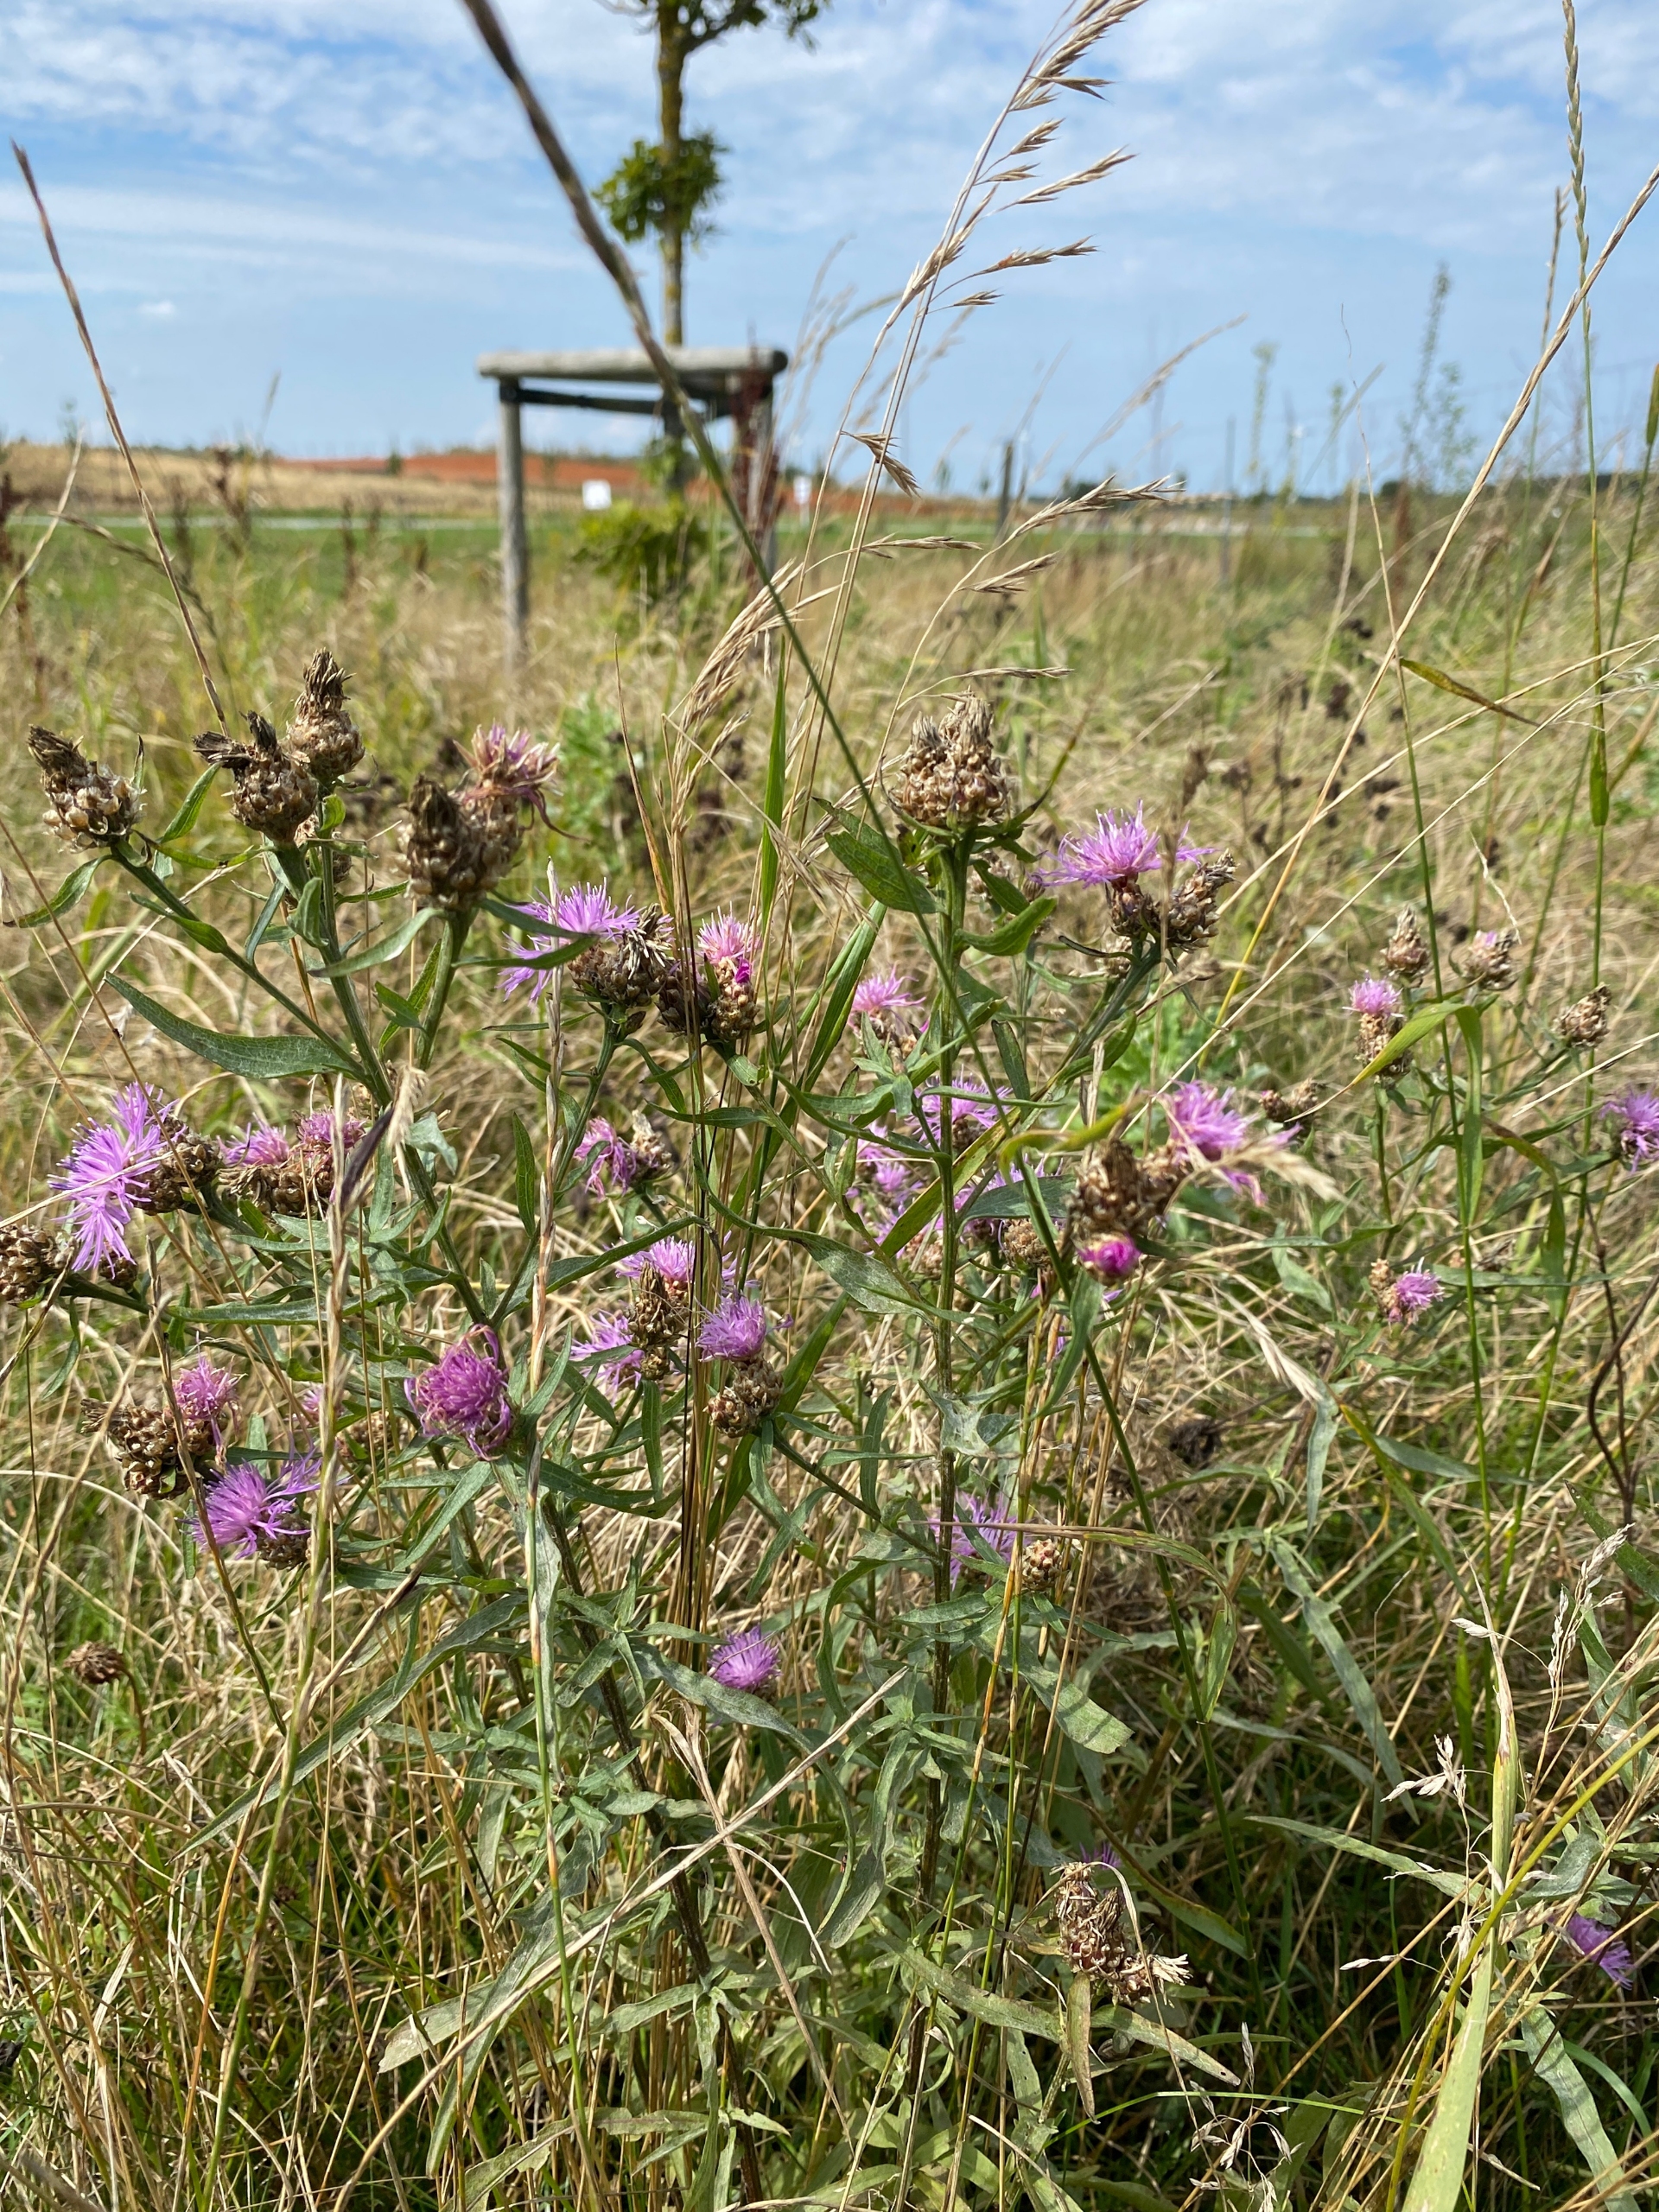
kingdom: Plantae
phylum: Tracheophyta
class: Magnoliopsida
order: Asterales
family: Asteraceae
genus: Centaurea
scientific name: Centaurea jacea
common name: Almindelig knopurt
